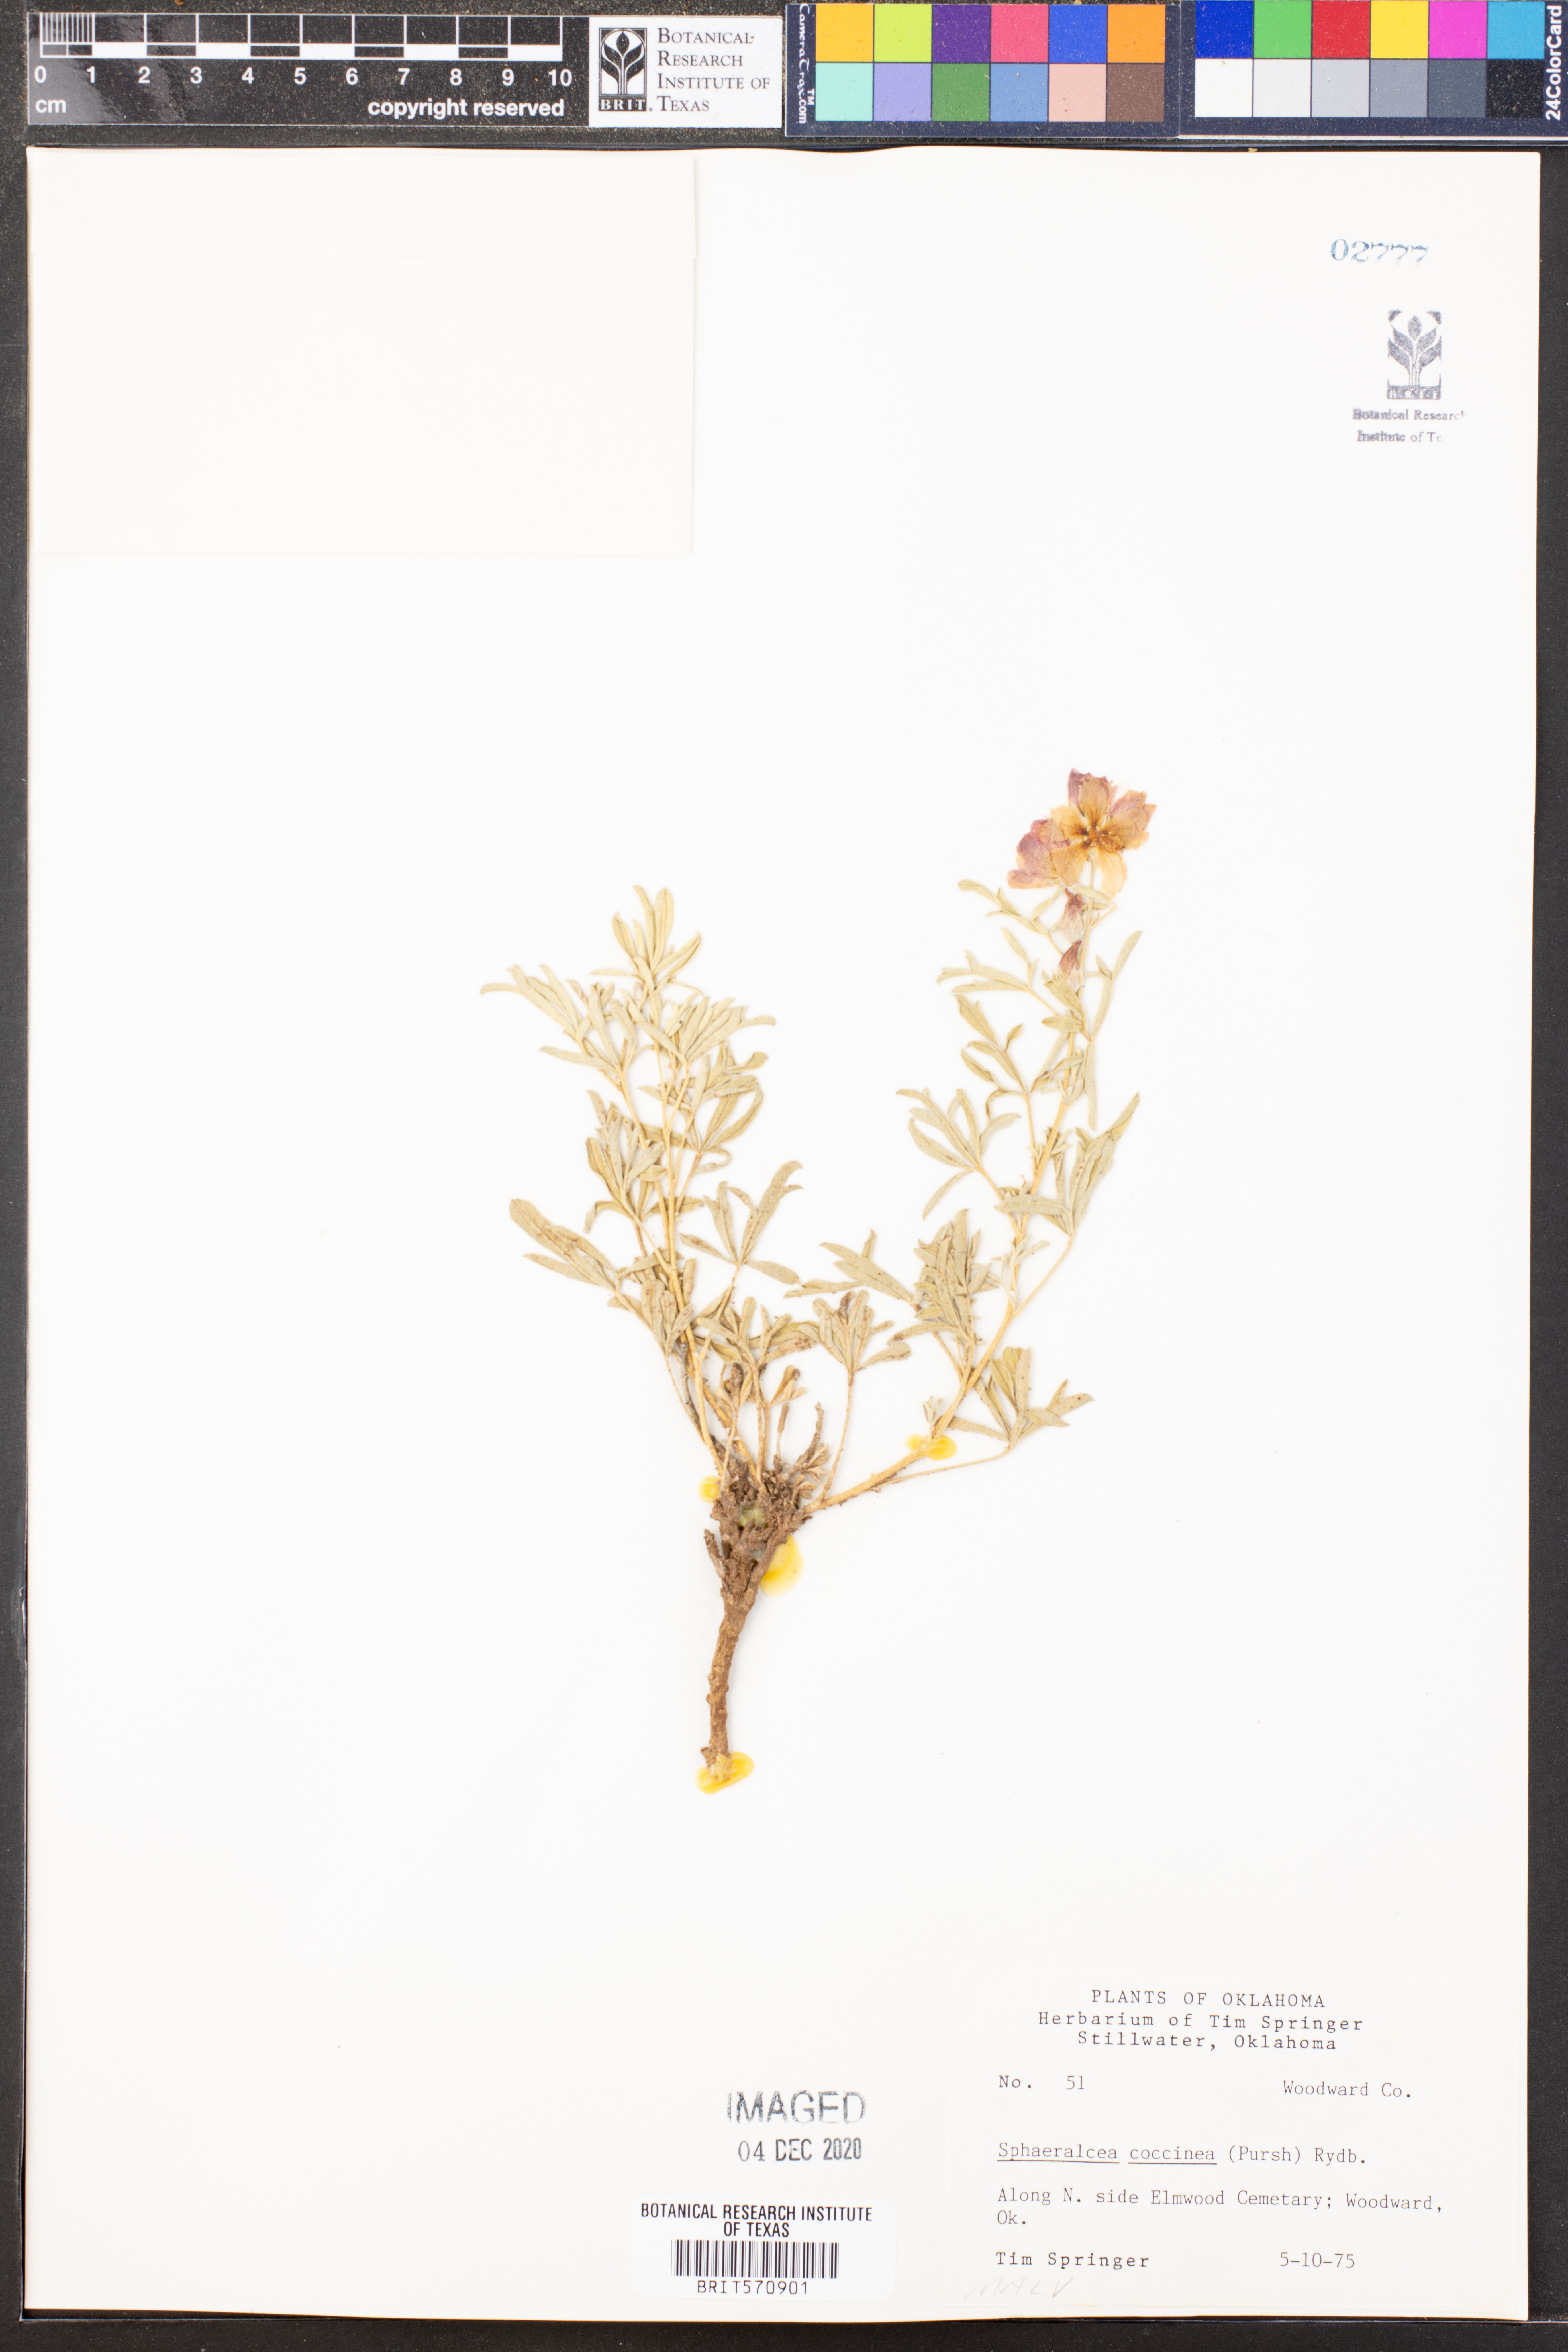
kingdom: Plantae
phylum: Tracheophyta
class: Magnoliopsida
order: Malvales
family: Malvaceae
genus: Sphaeralcea
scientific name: Sphaeralcea coccinea
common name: Moss-rose
